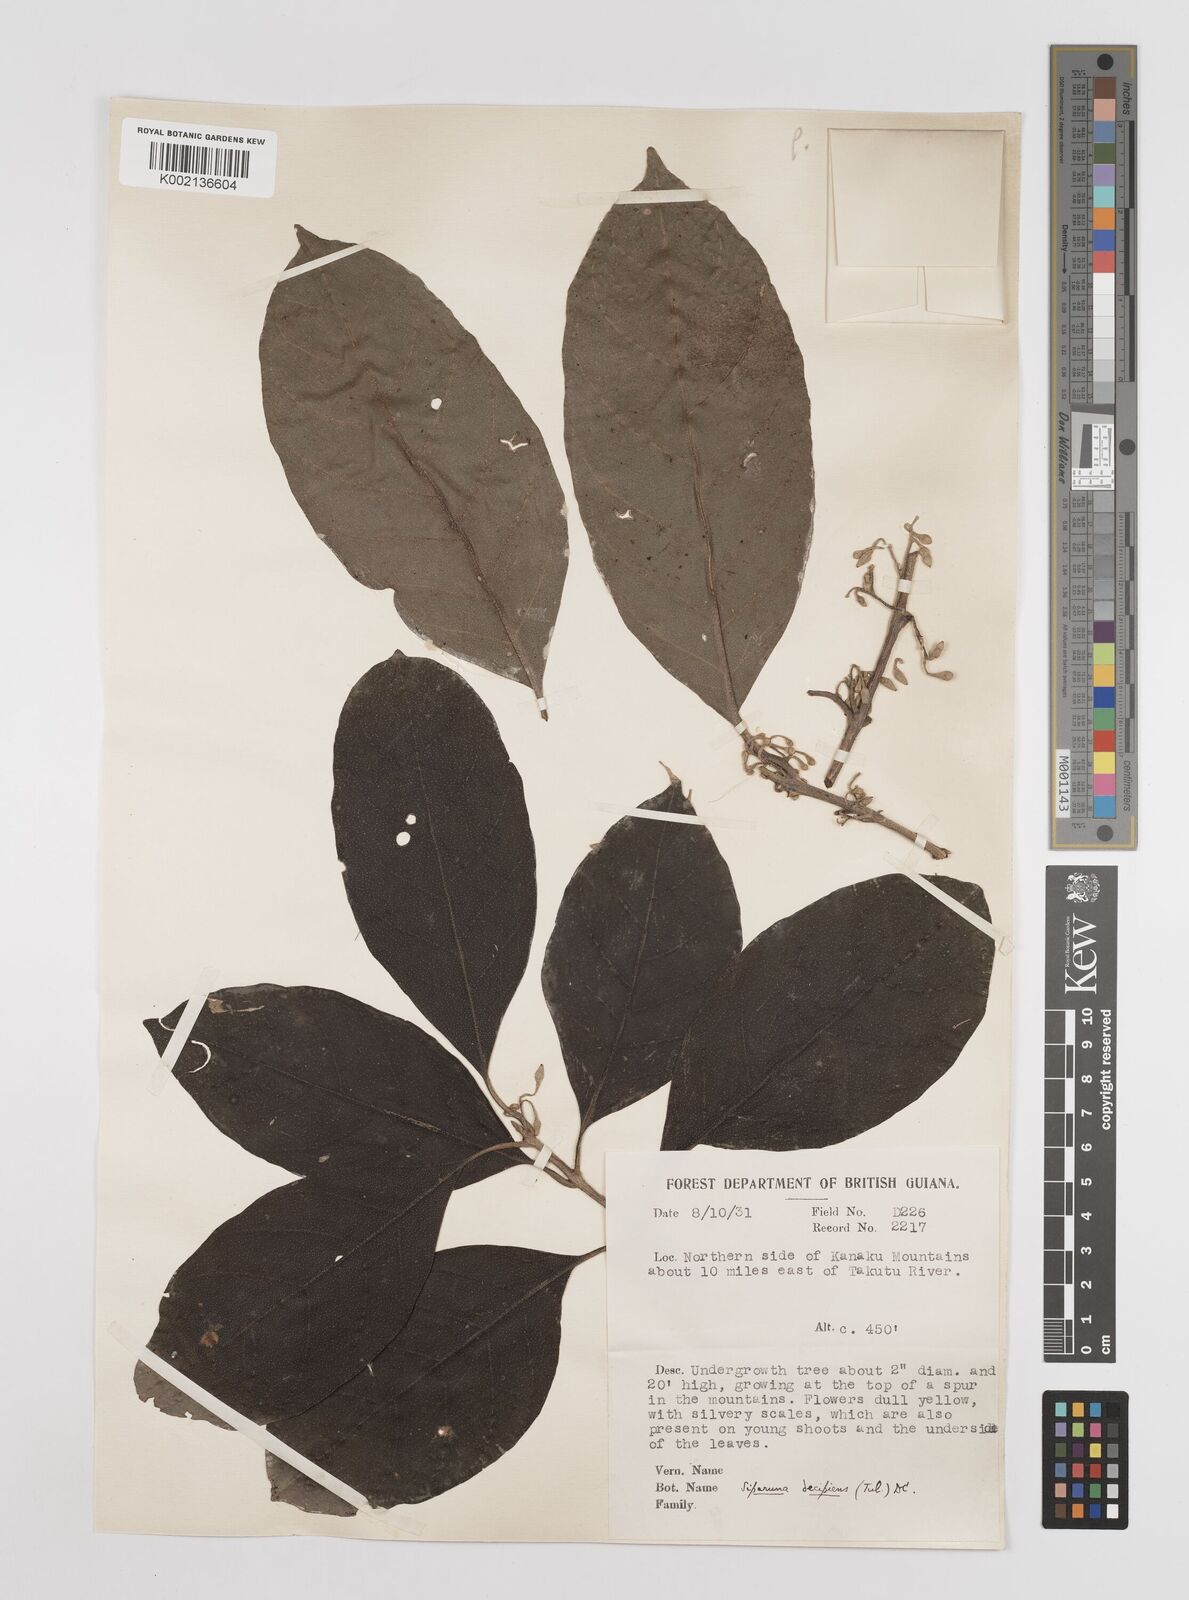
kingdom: Plantae
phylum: Tracheophyta
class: Magnoliopsida
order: Laurales
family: Siparunaceae
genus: Siparuna
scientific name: Siparuna decipiens
